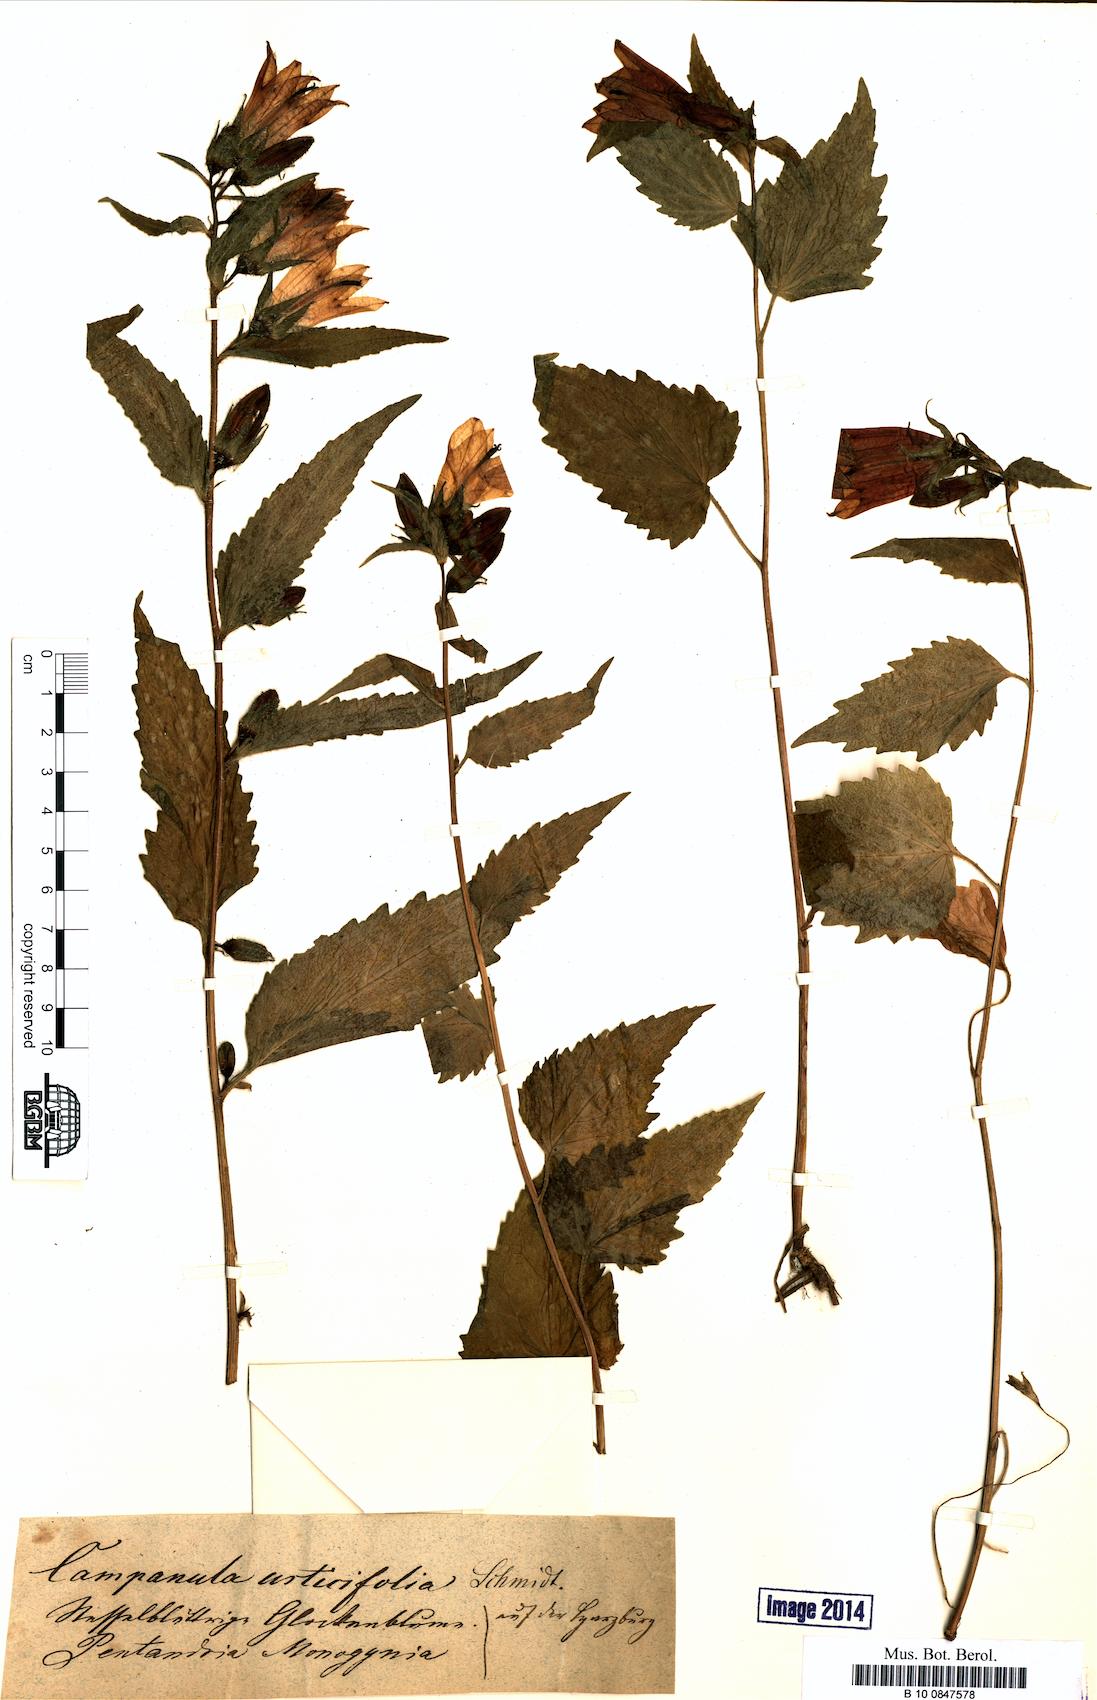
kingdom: Plantae
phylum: Tracheophyta
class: Magnoliopsida
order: Asterales
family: Campanulaceae
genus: Campanula
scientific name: Campanula trachelium
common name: Nettle-leaved bellflower
